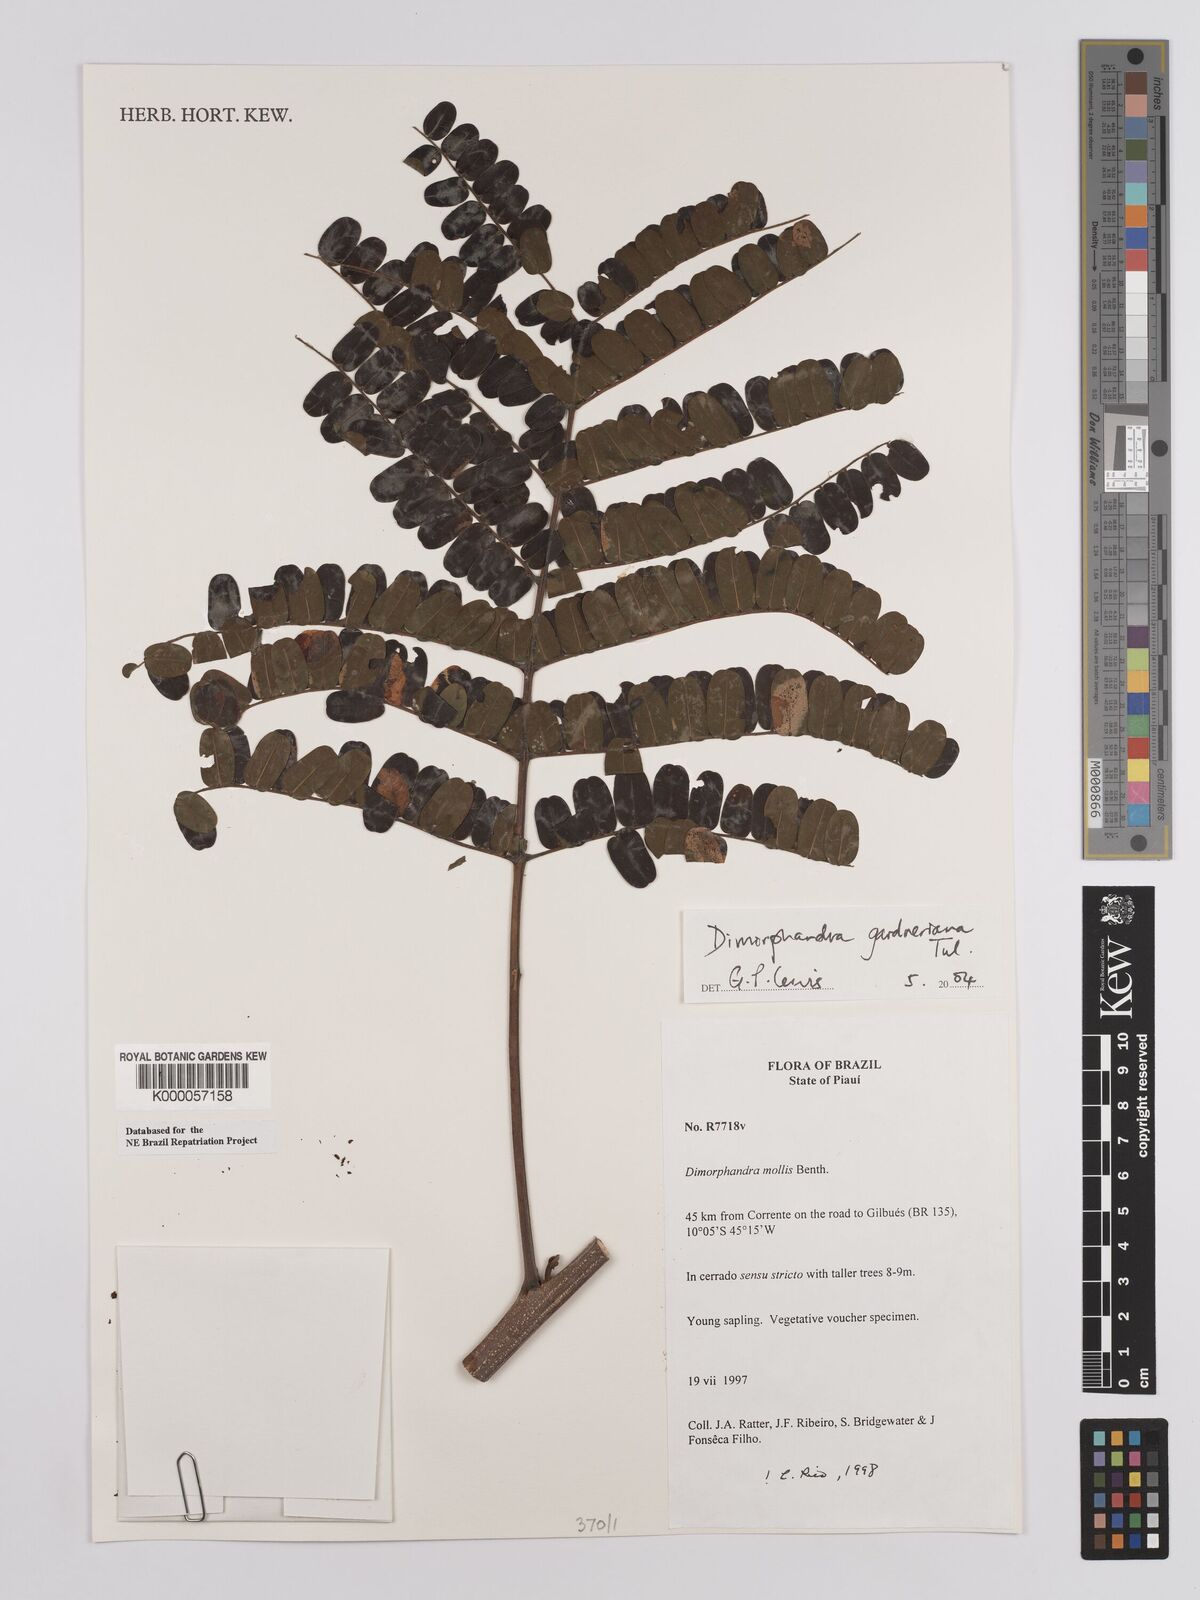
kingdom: Plantae
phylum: Tracheophyta
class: Magnoliopsida
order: Fabales
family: Fabaceae
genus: Dimorphandra
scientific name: Dimorphandra mollis
